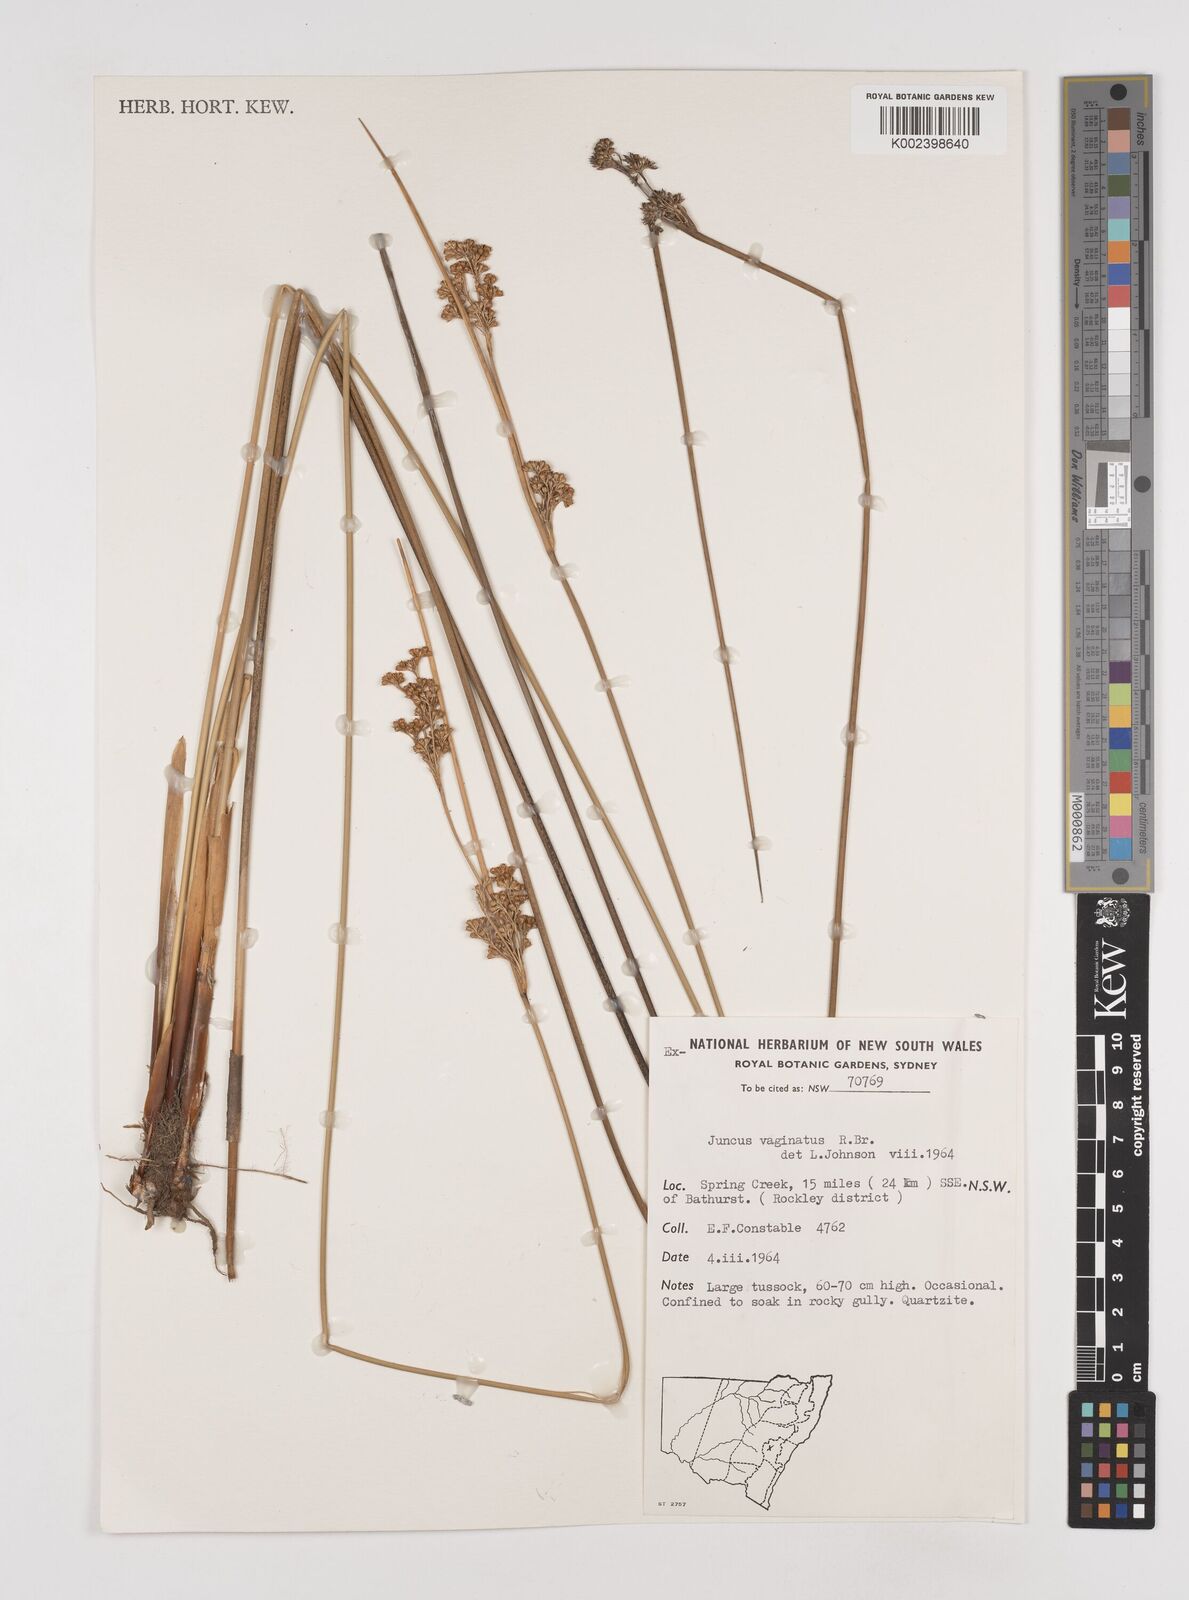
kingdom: Plantae
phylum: Tracheophyta
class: Liliopsida
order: Poales
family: Juncaceae
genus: Juncus
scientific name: Juncus vaginatus
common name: Clustered rush
